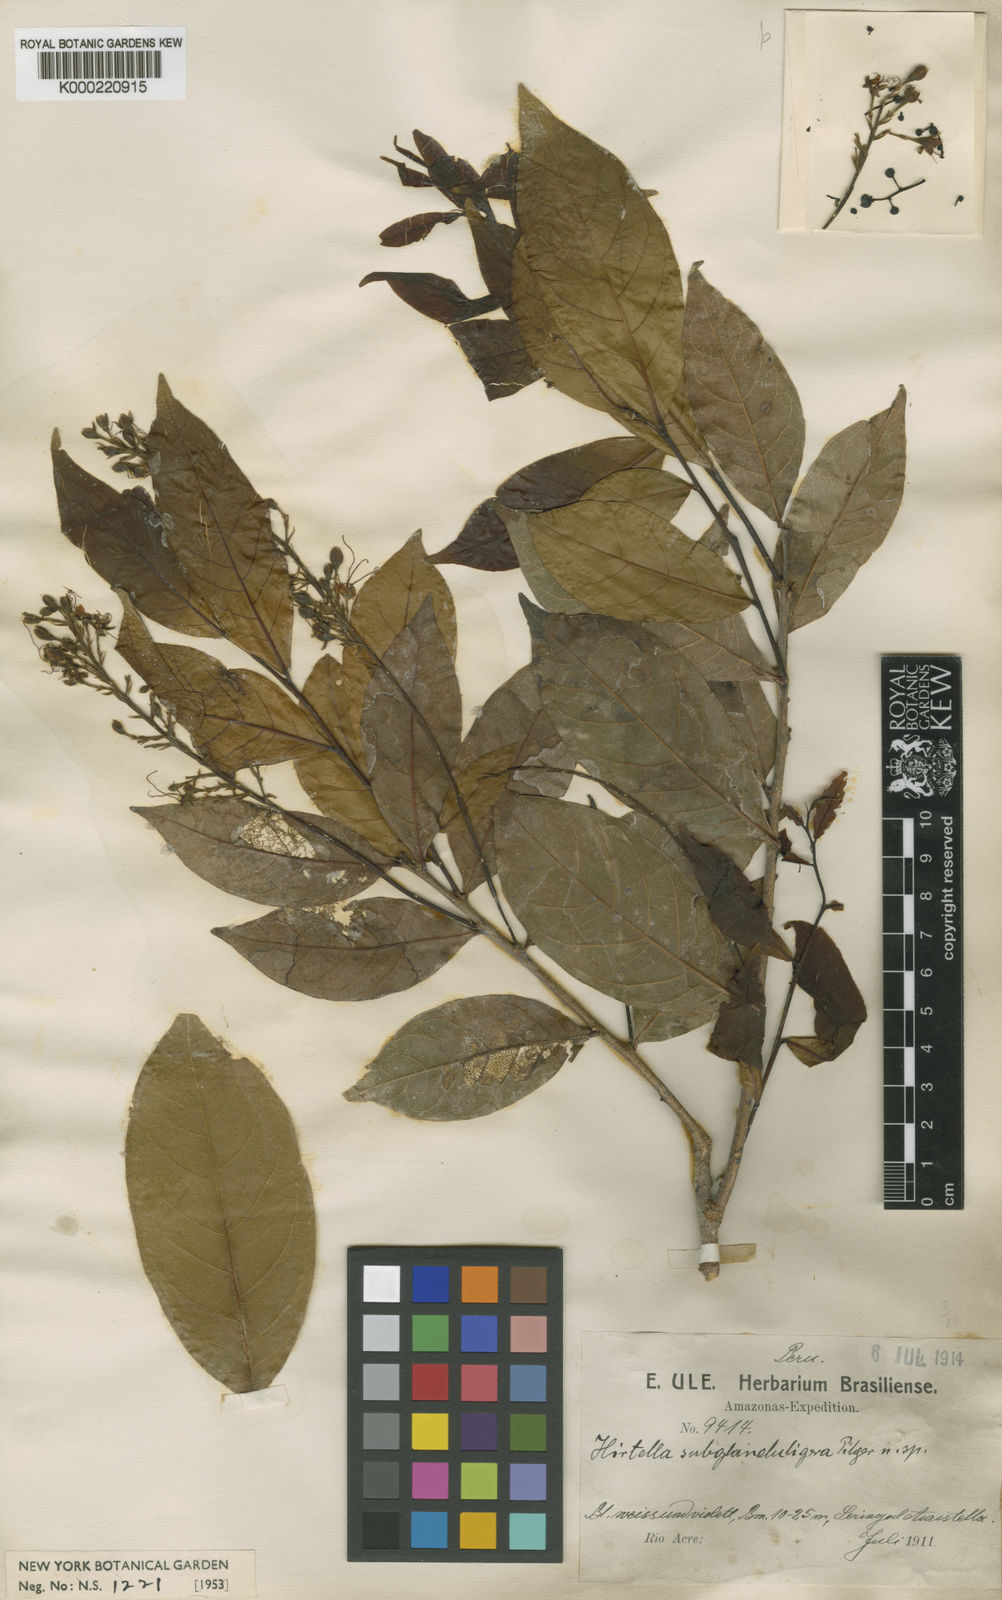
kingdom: Plantae
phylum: Tracheophyta
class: Magnoliopsida
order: Malpighiales
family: Chrysobalanaceae
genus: Hirtella
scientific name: Hirtella subglanduligera
